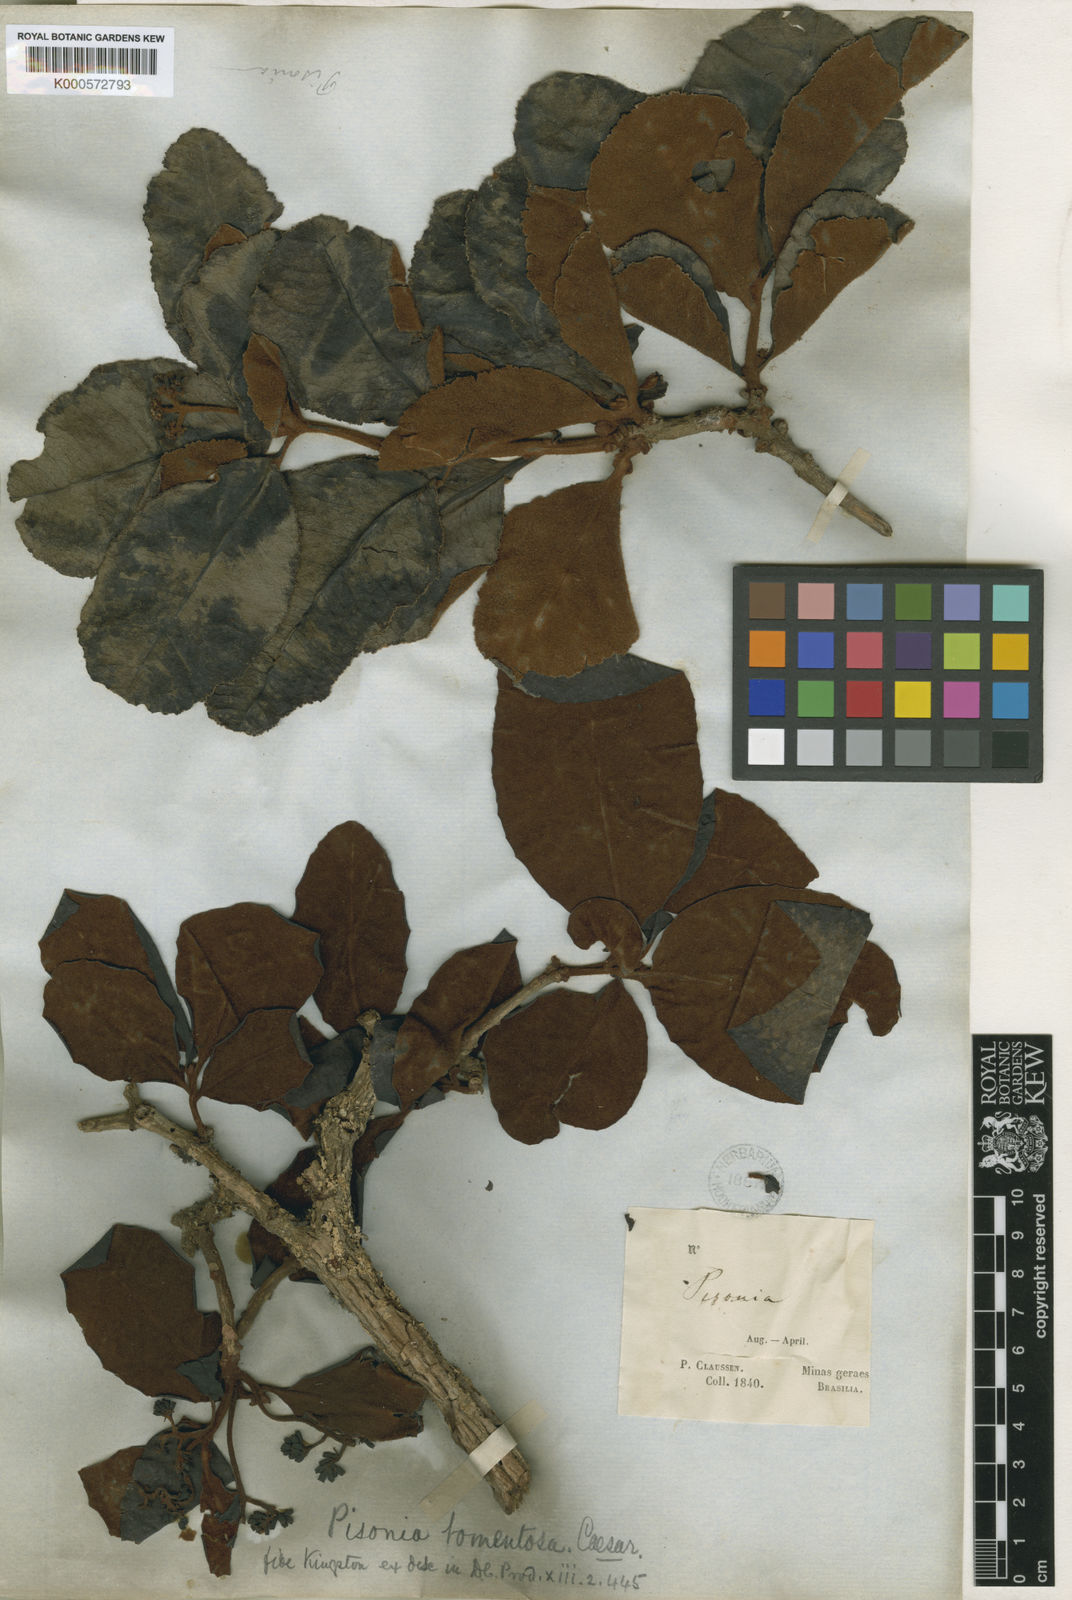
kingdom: Plantae
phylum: Tracheophyta
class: Magnoliopsida
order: Caryophyllales
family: Nyctaginaceae
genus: Guapira
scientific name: Guapira noxia
